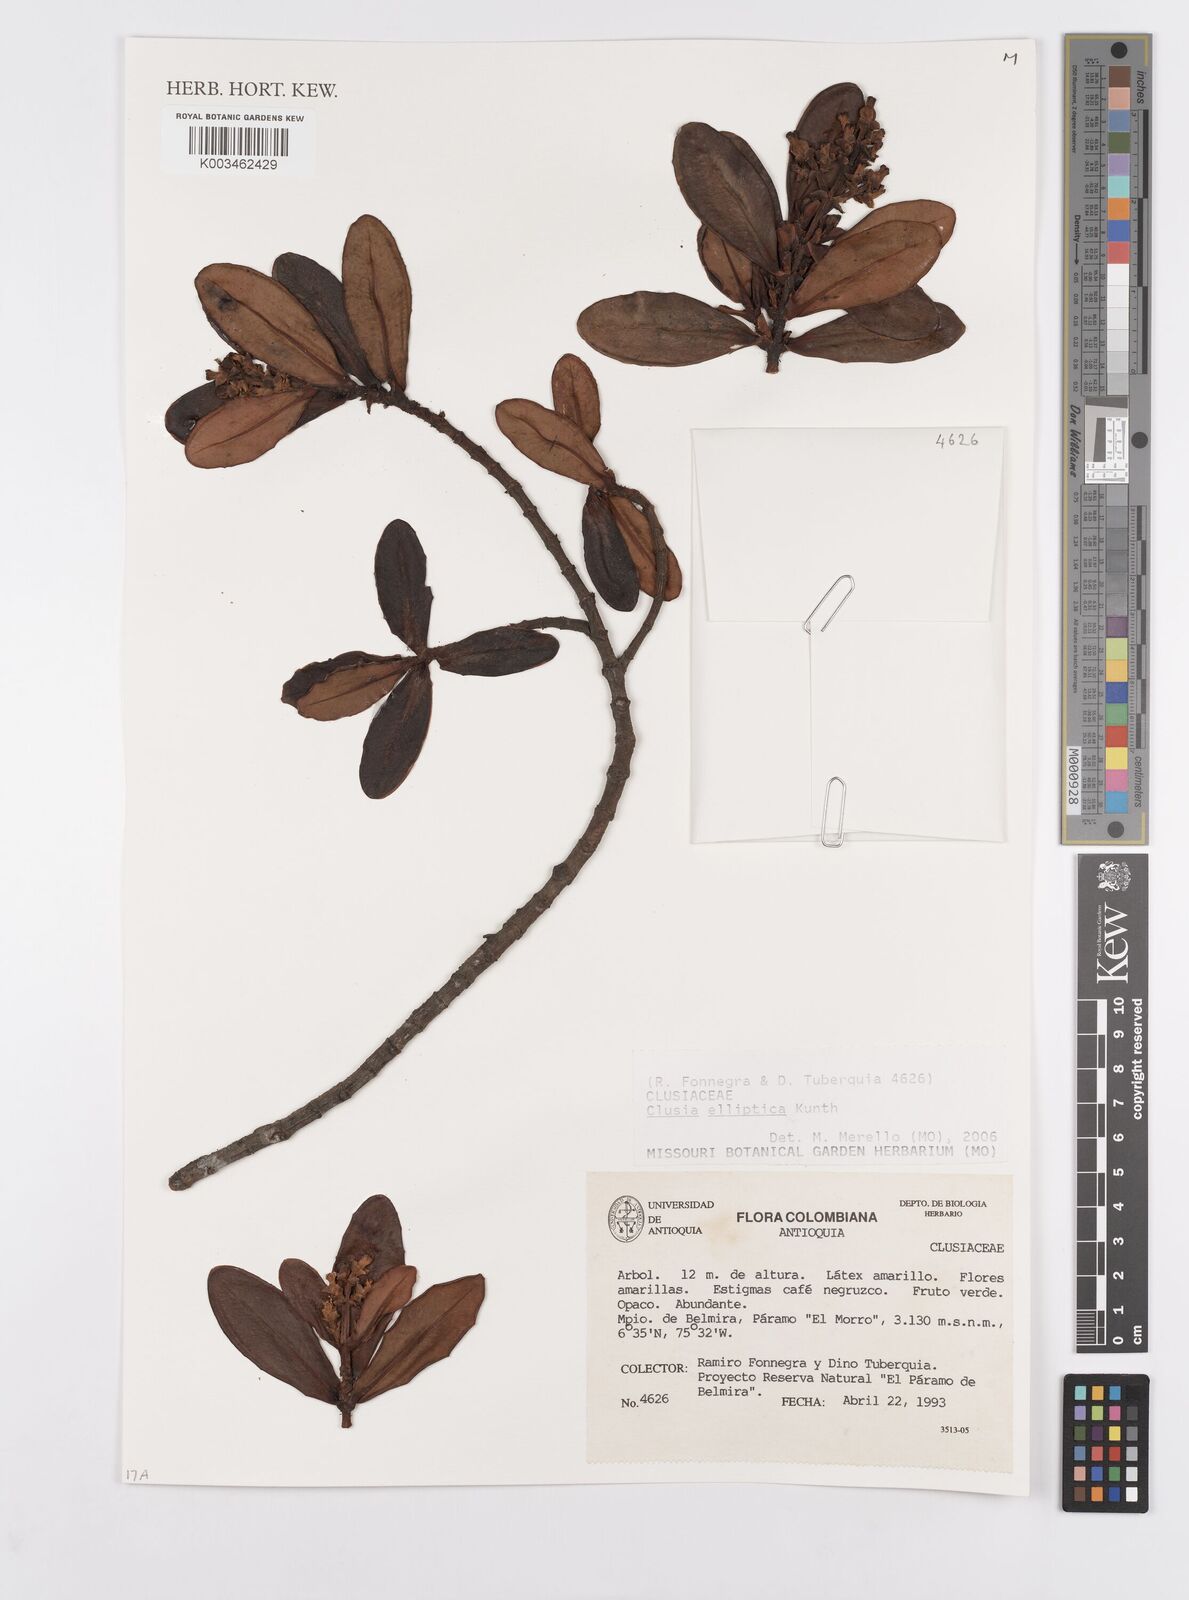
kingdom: Plantae
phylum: Tracheophyta
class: Magnoliopsida
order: Malpighiales
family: Clusiaceae
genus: Clusia
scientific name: Clusia elliptica
